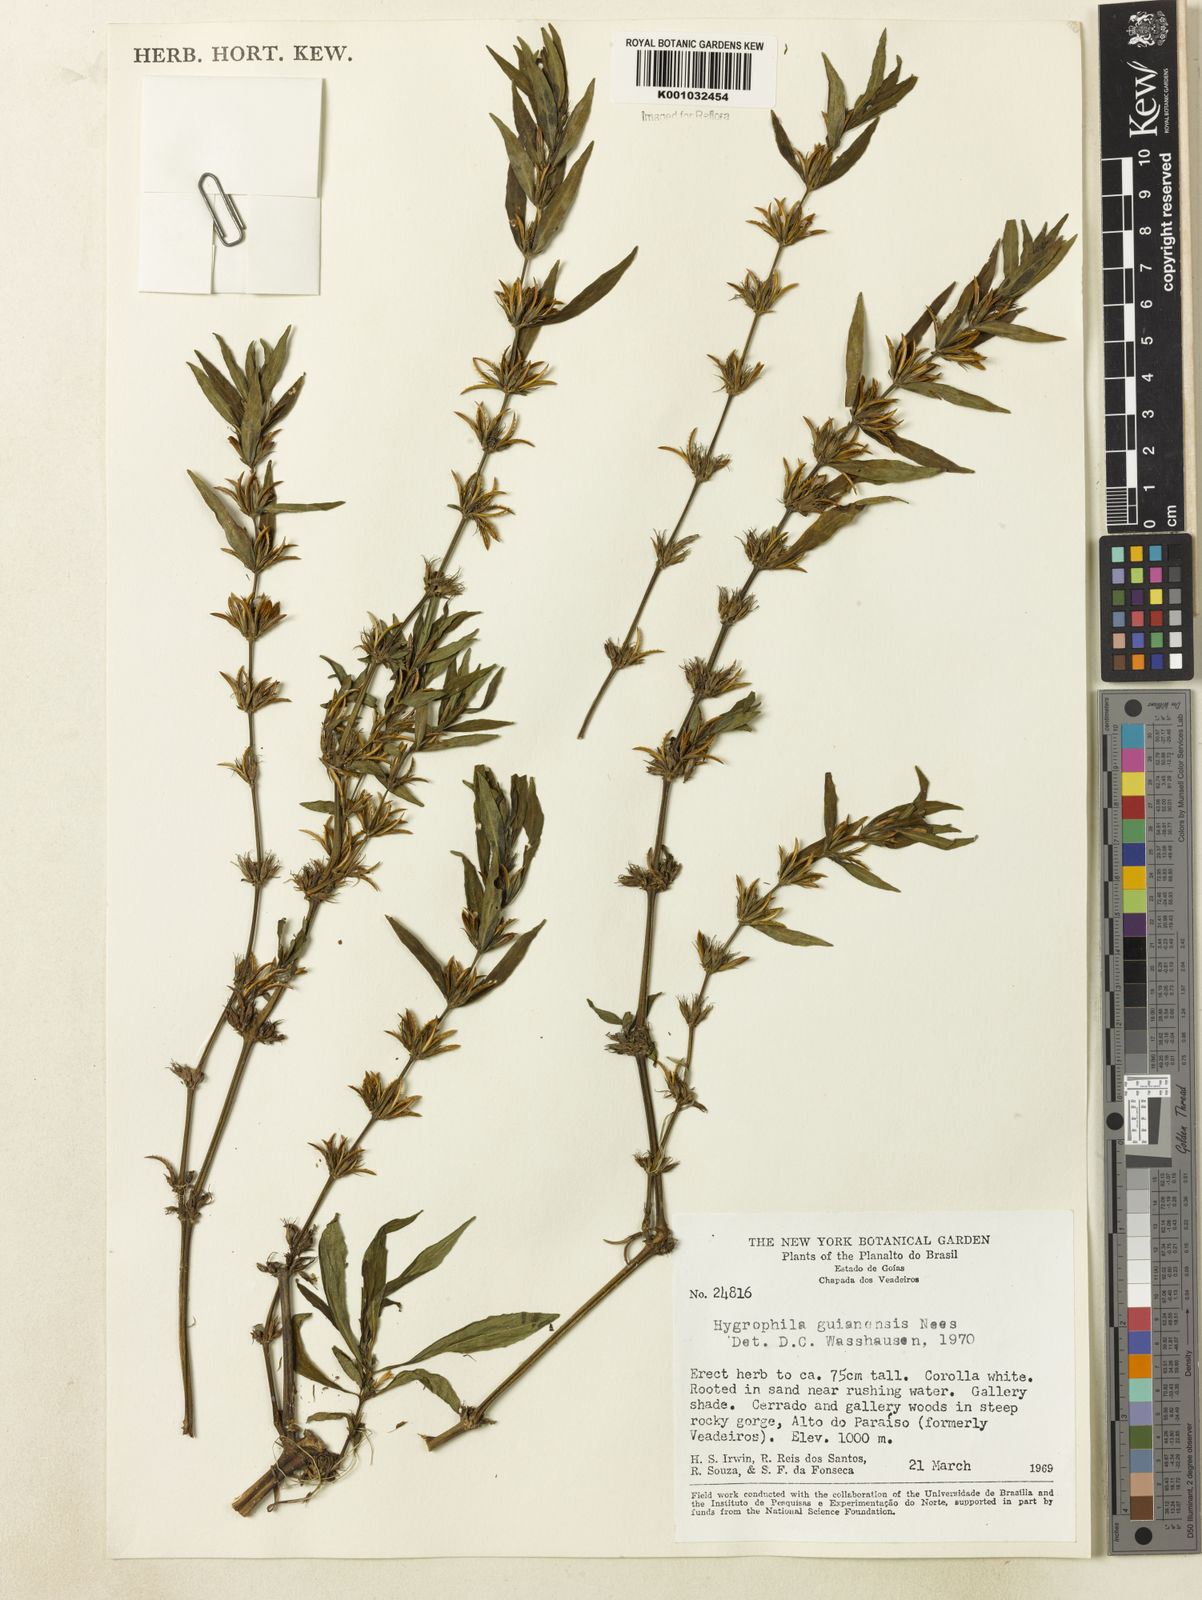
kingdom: Plantae
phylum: Tracheophyta
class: Magnoliopsida
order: Lamiales
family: Acanthaceae
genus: Hygrophila
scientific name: Hygrophila costata
